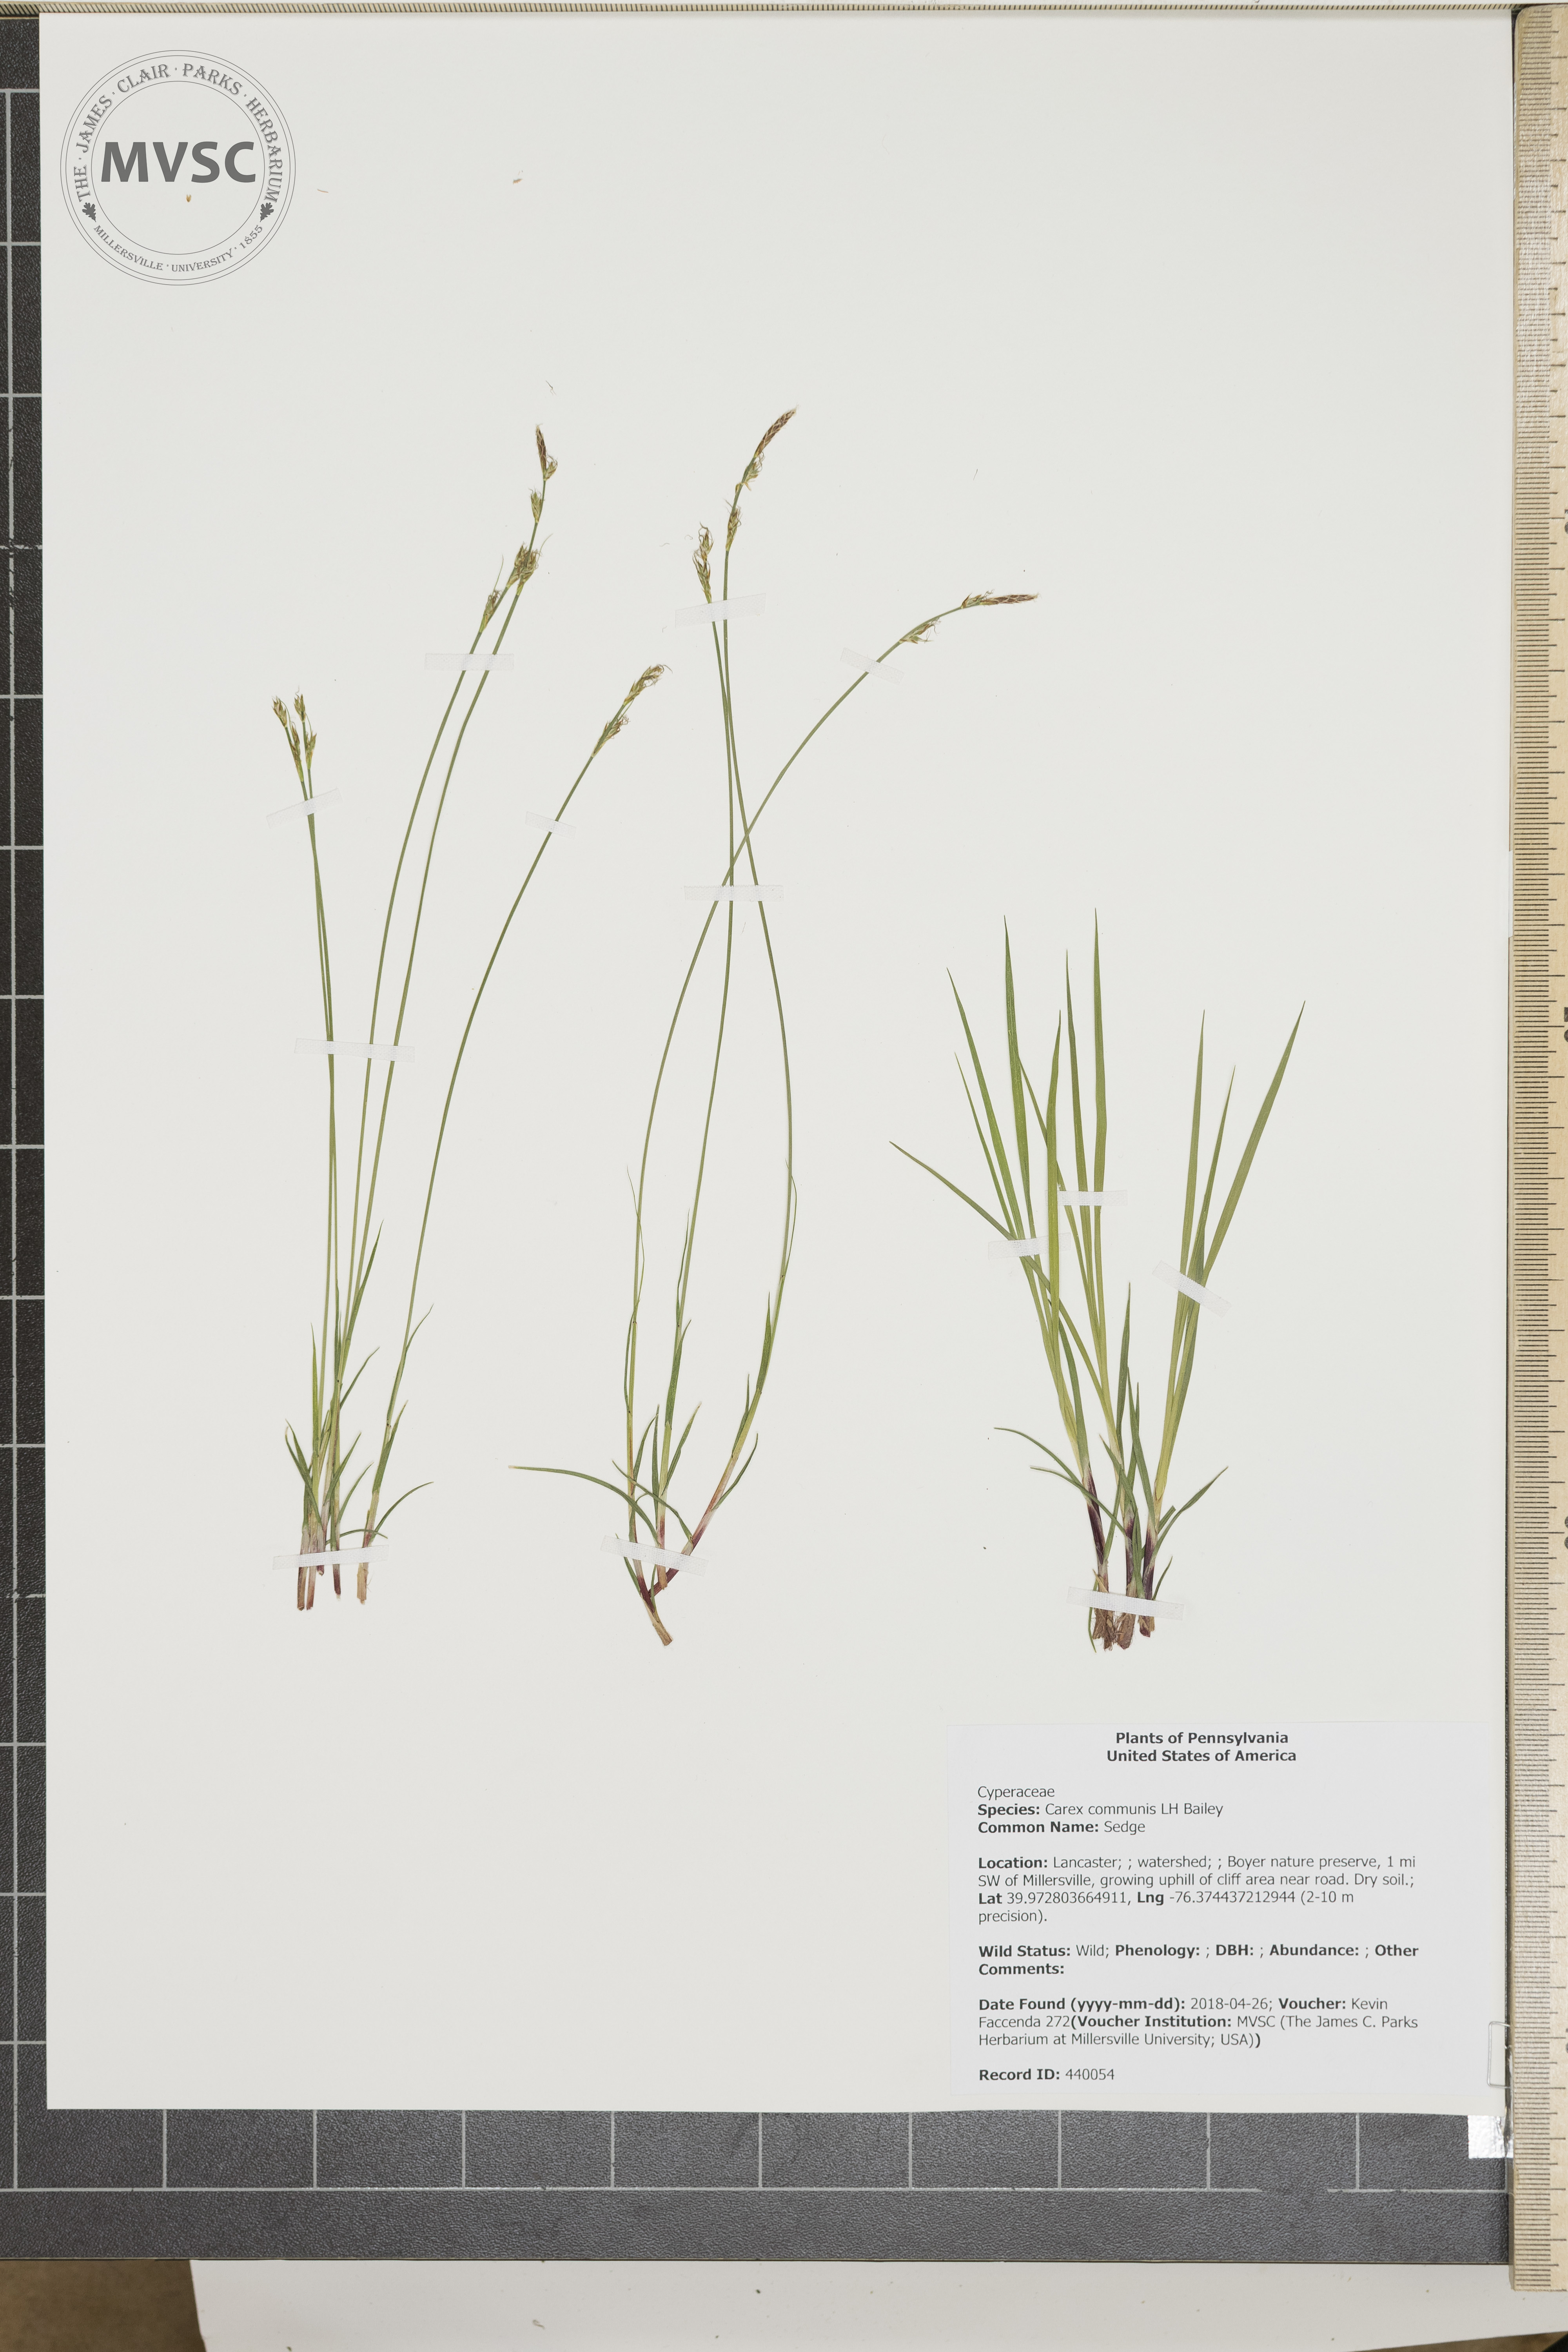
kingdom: Plantae
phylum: Tracheophyta
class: Liliopsida
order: Poales
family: Cyperaceae
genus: Carex
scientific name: Carex communis
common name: Sedge
